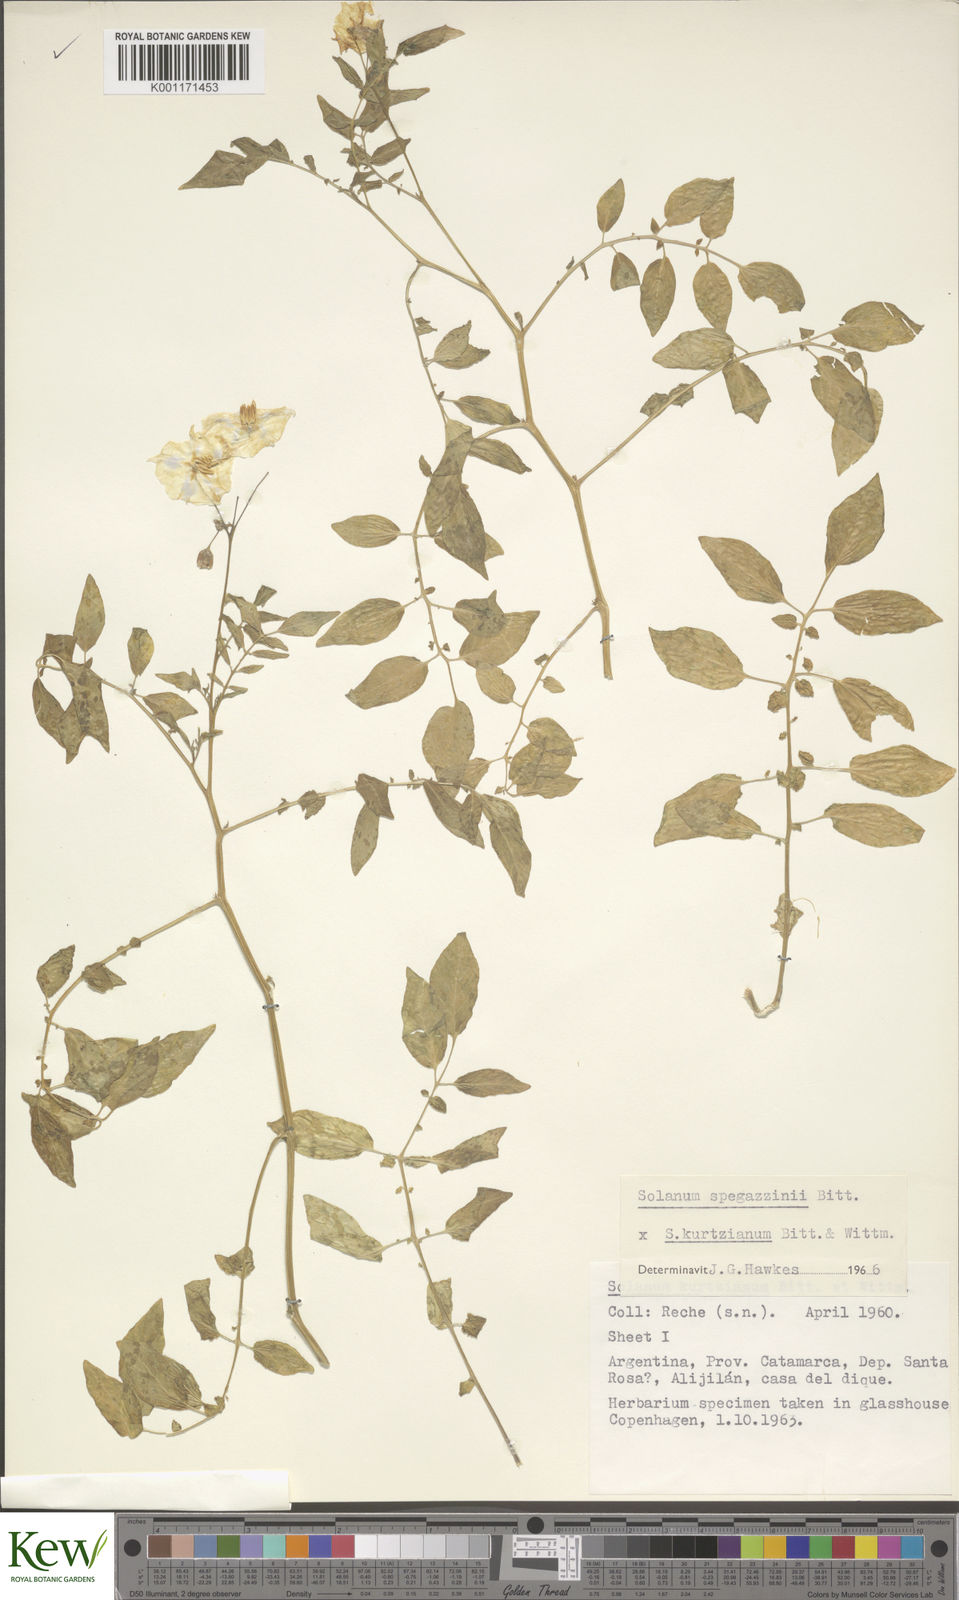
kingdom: Plantae
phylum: Tracheophyta
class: Magnoliopsida
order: Solanales
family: Solanaceae
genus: Solanum
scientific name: Solanum brevicaule
